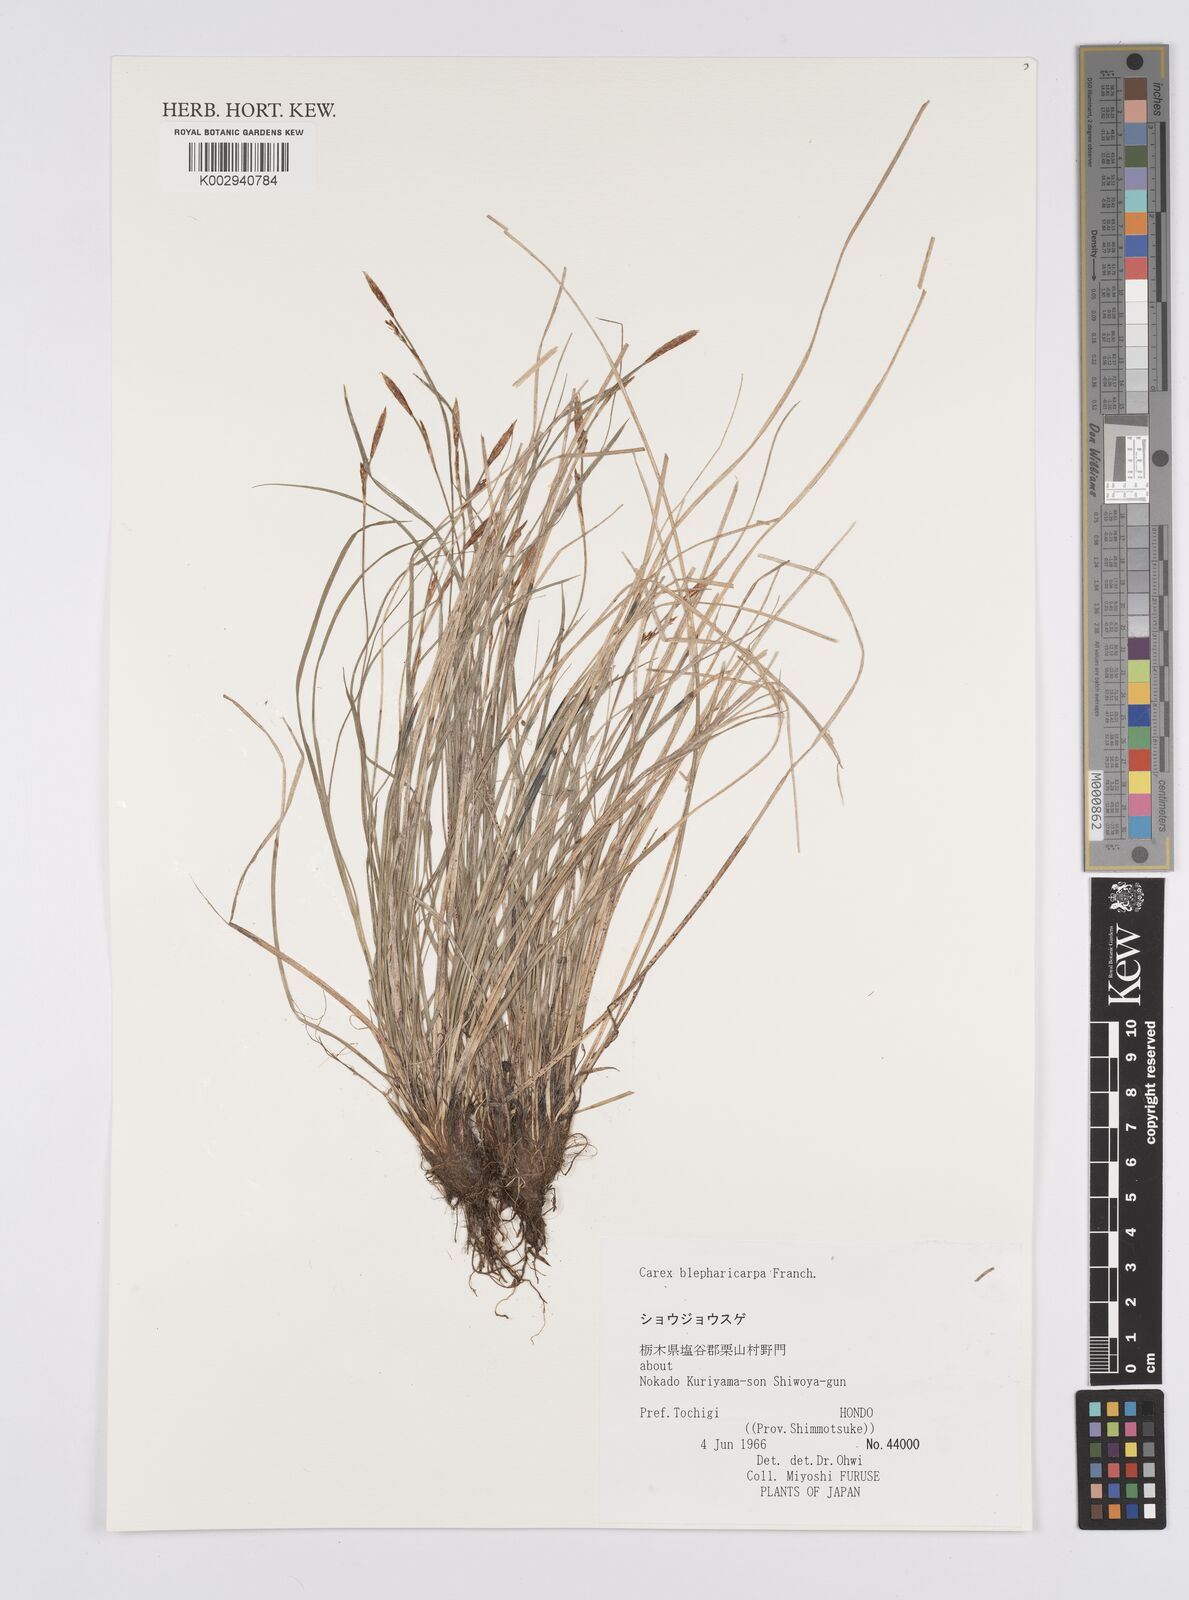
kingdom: Plantae
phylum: Tracheophyta
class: Liliopsida
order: Poales
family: Cyperaceae
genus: Carex
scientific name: Carex blepharicarpa
